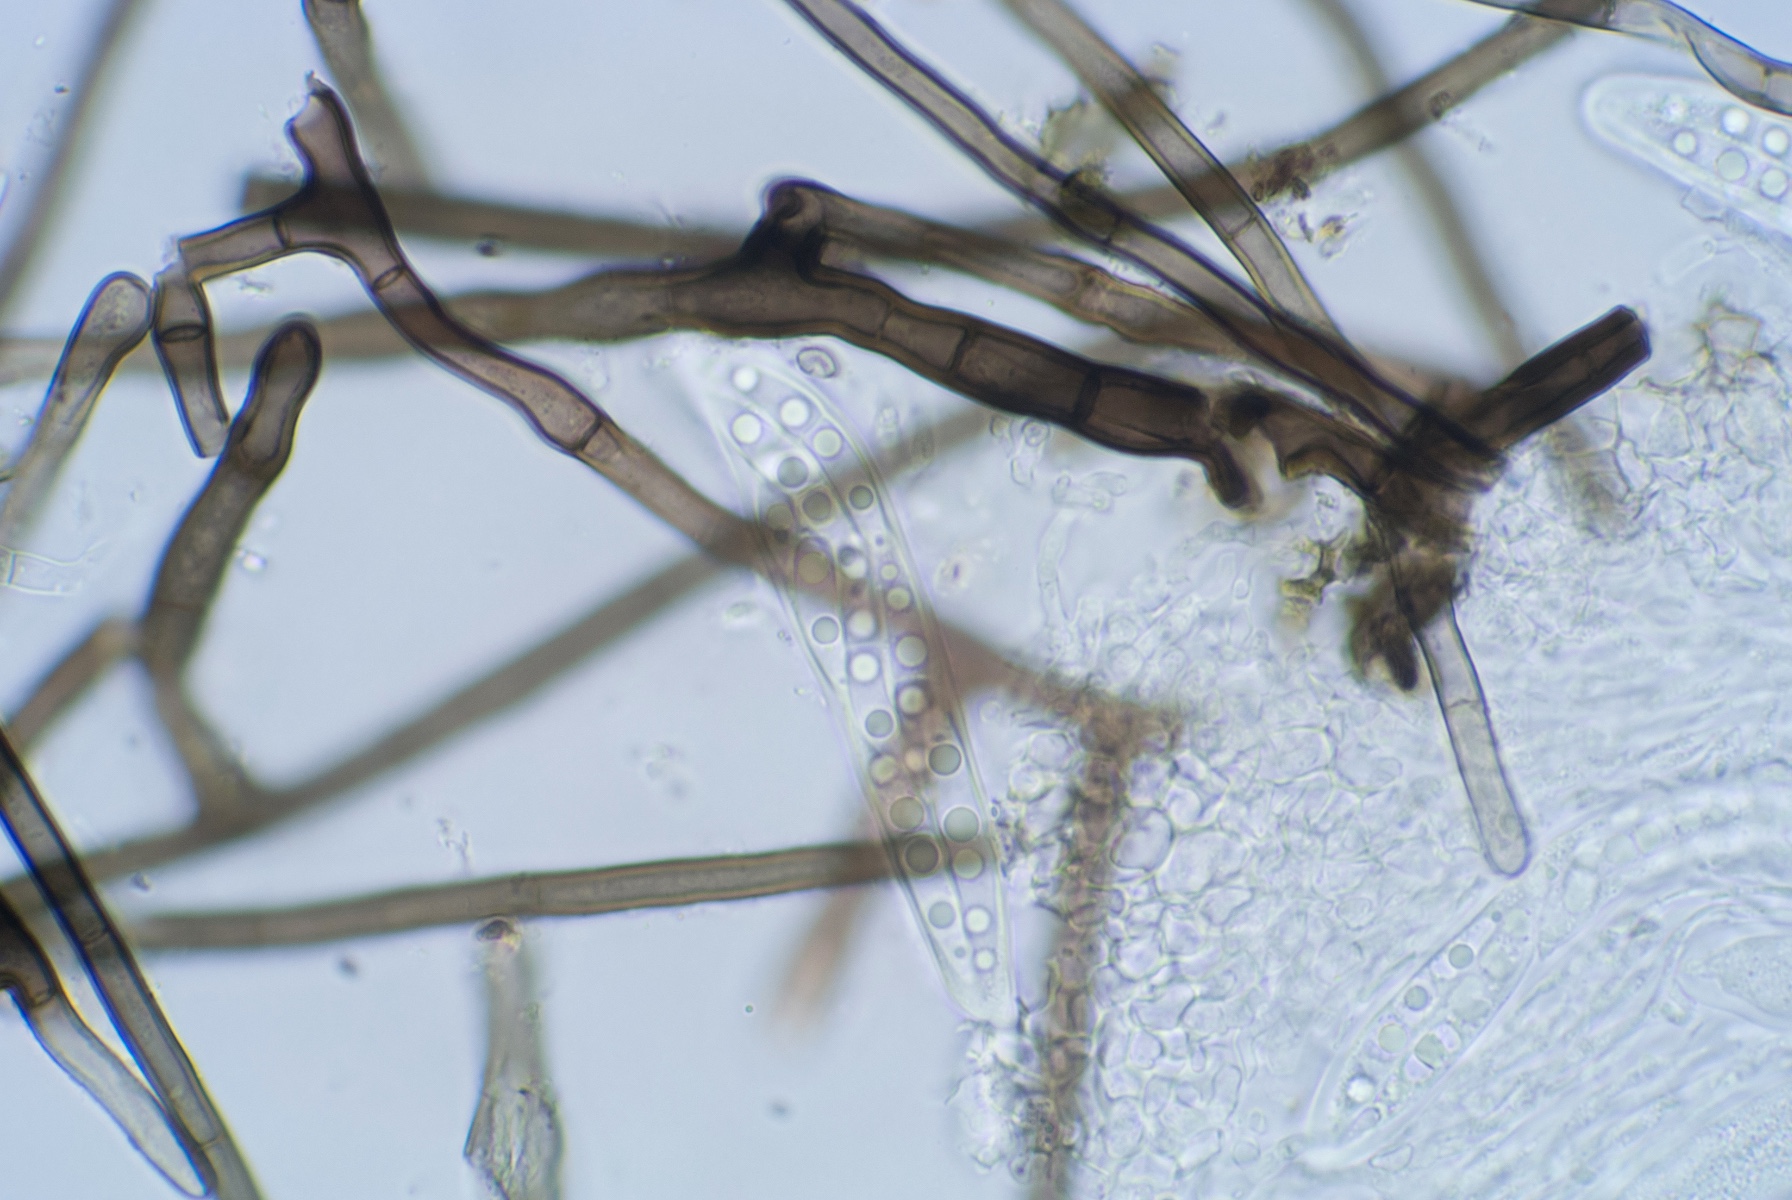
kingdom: Plantae
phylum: Bryophyta
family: Dothideomycetes
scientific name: Dothideomycetes
